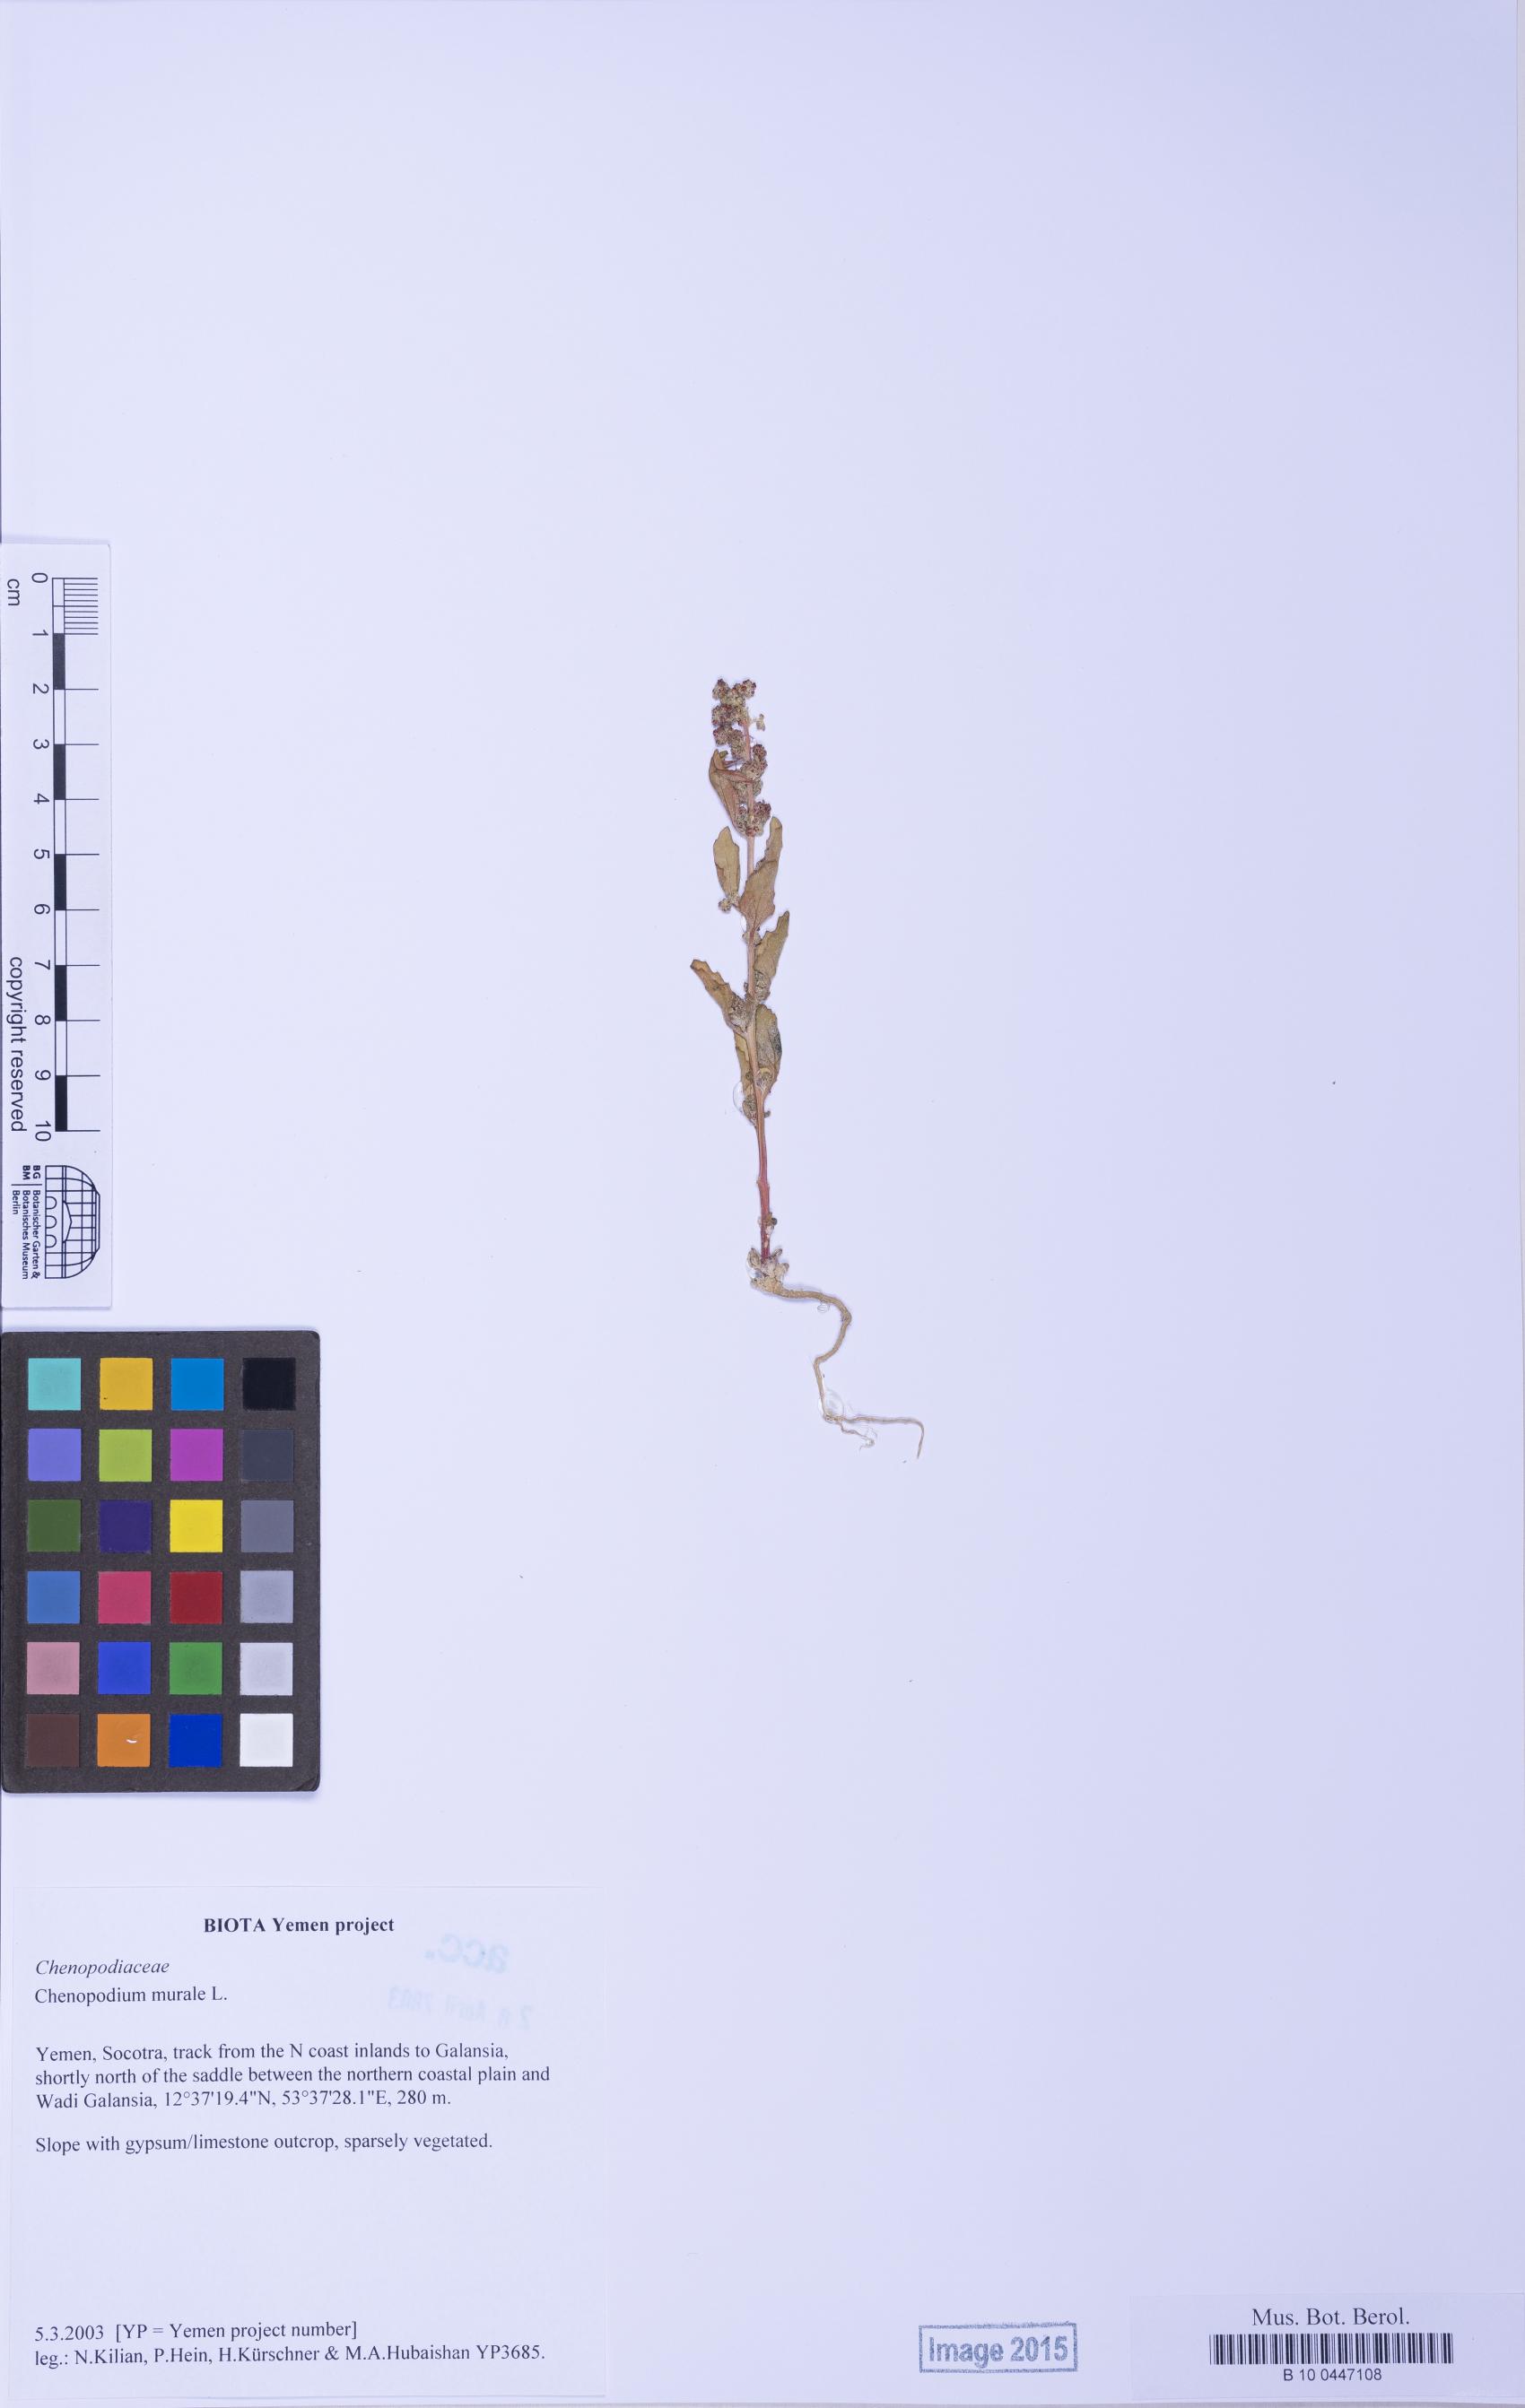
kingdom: Plantae
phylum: Tracheophyta
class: Magnoliopsida
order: Caryophyllales
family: Amaranthaceae
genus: Chenopodiastrum
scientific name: Chenopodiastrum murale
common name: Sowbane
